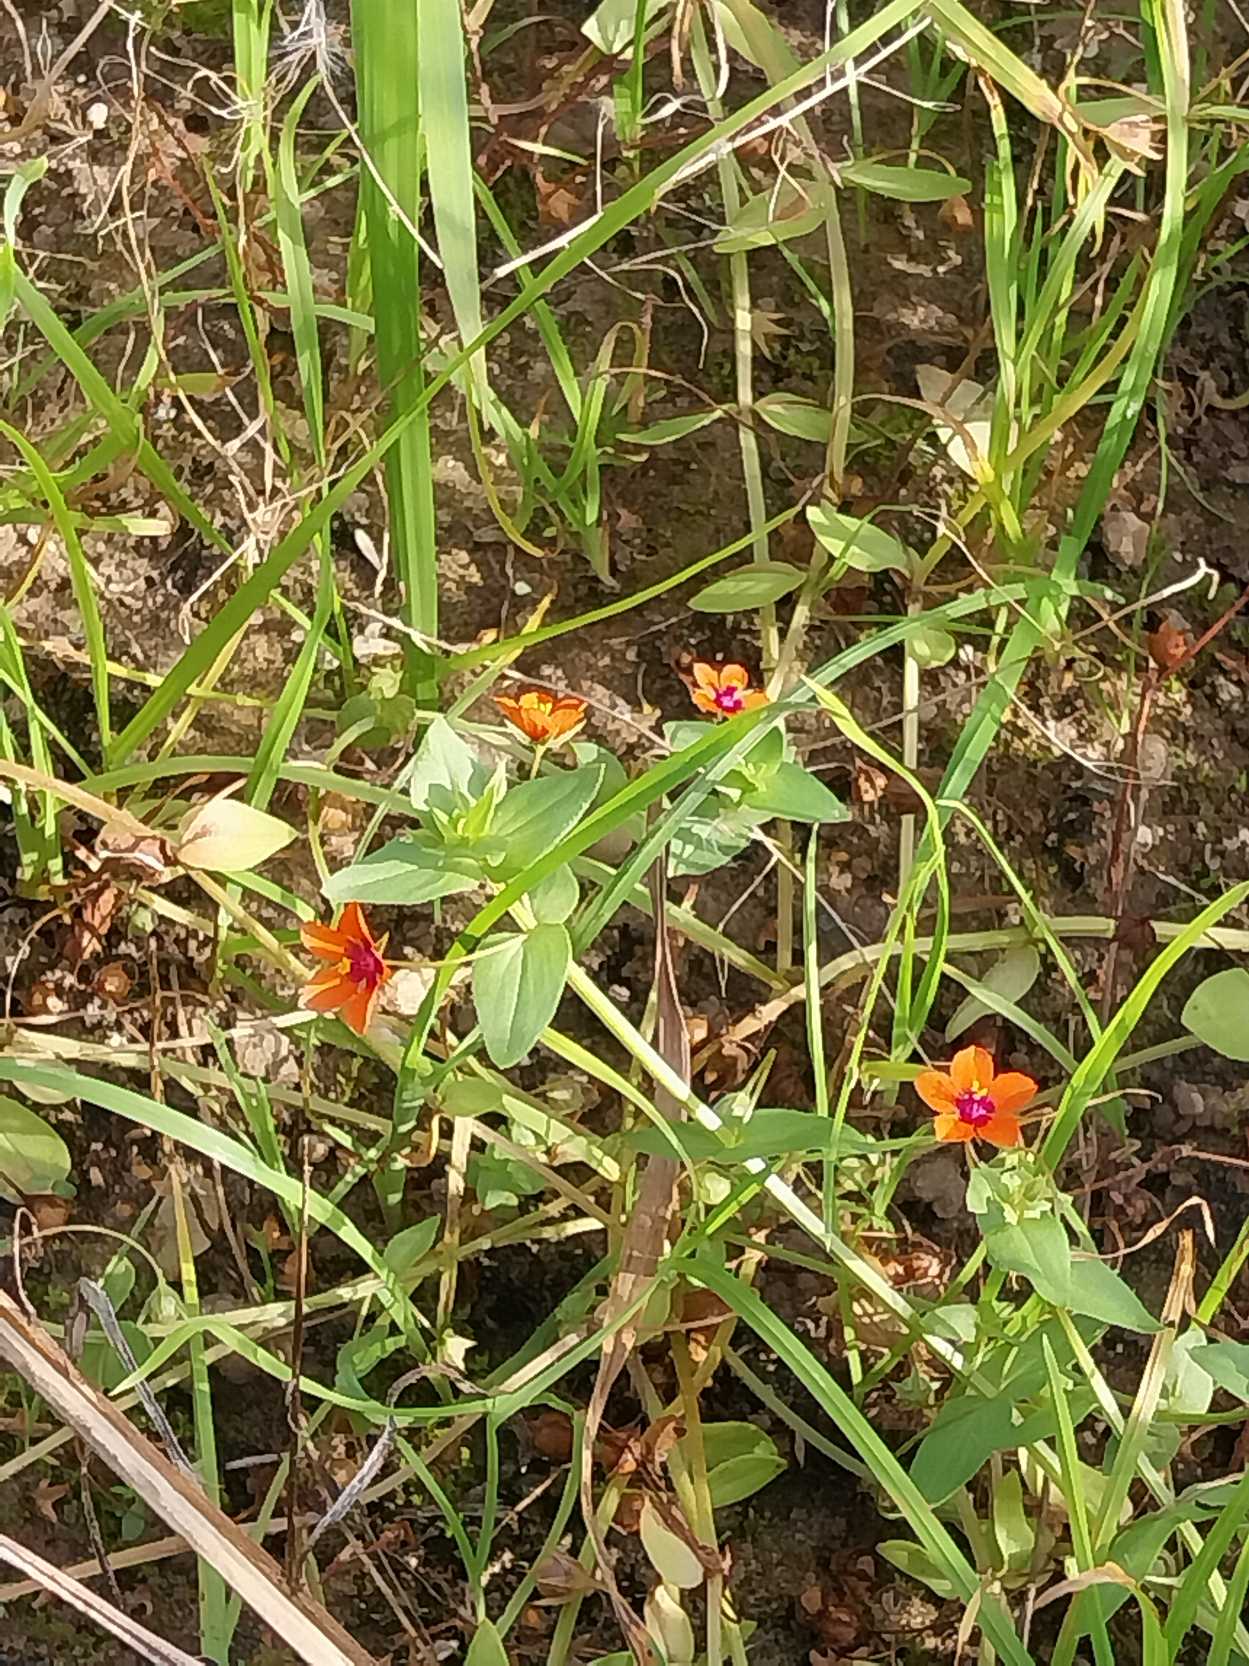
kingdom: Plantae
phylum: Tracheophyta
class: Magnoliopsida
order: Ericales
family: Primulaceae
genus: Lysimachia
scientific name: Lysimachia arvensis
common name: Rød arve
